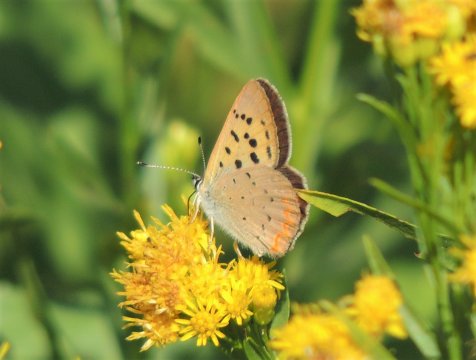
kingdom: Animalia
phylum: Arthropoda
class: Insecta
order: Lepidoptera
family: Sesiidae
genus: Sesia
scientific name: Sesia Lycaena helloides
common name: Purplish Copper
